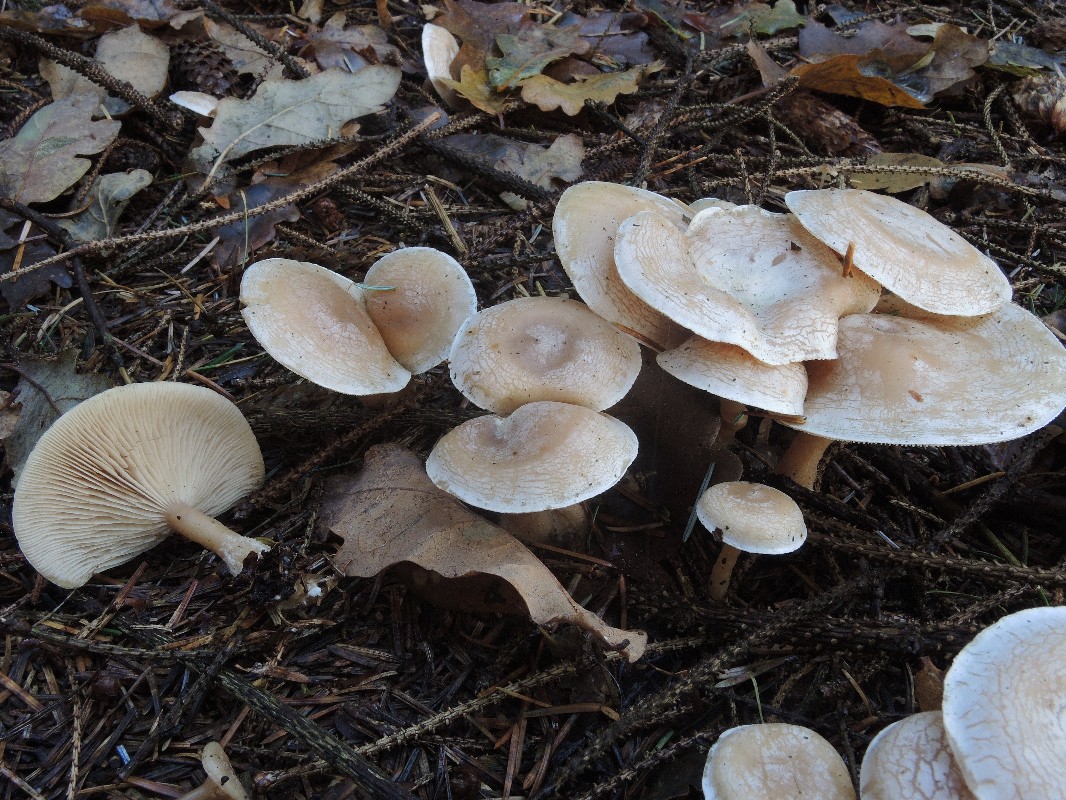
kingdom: Fungi
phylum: Basidiomycota
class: Agaricomycetes
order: Agaricales
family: Tricholomataceae
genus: Clitocybe
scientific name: Clitocybe phyllophila
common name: løv-tragthat
